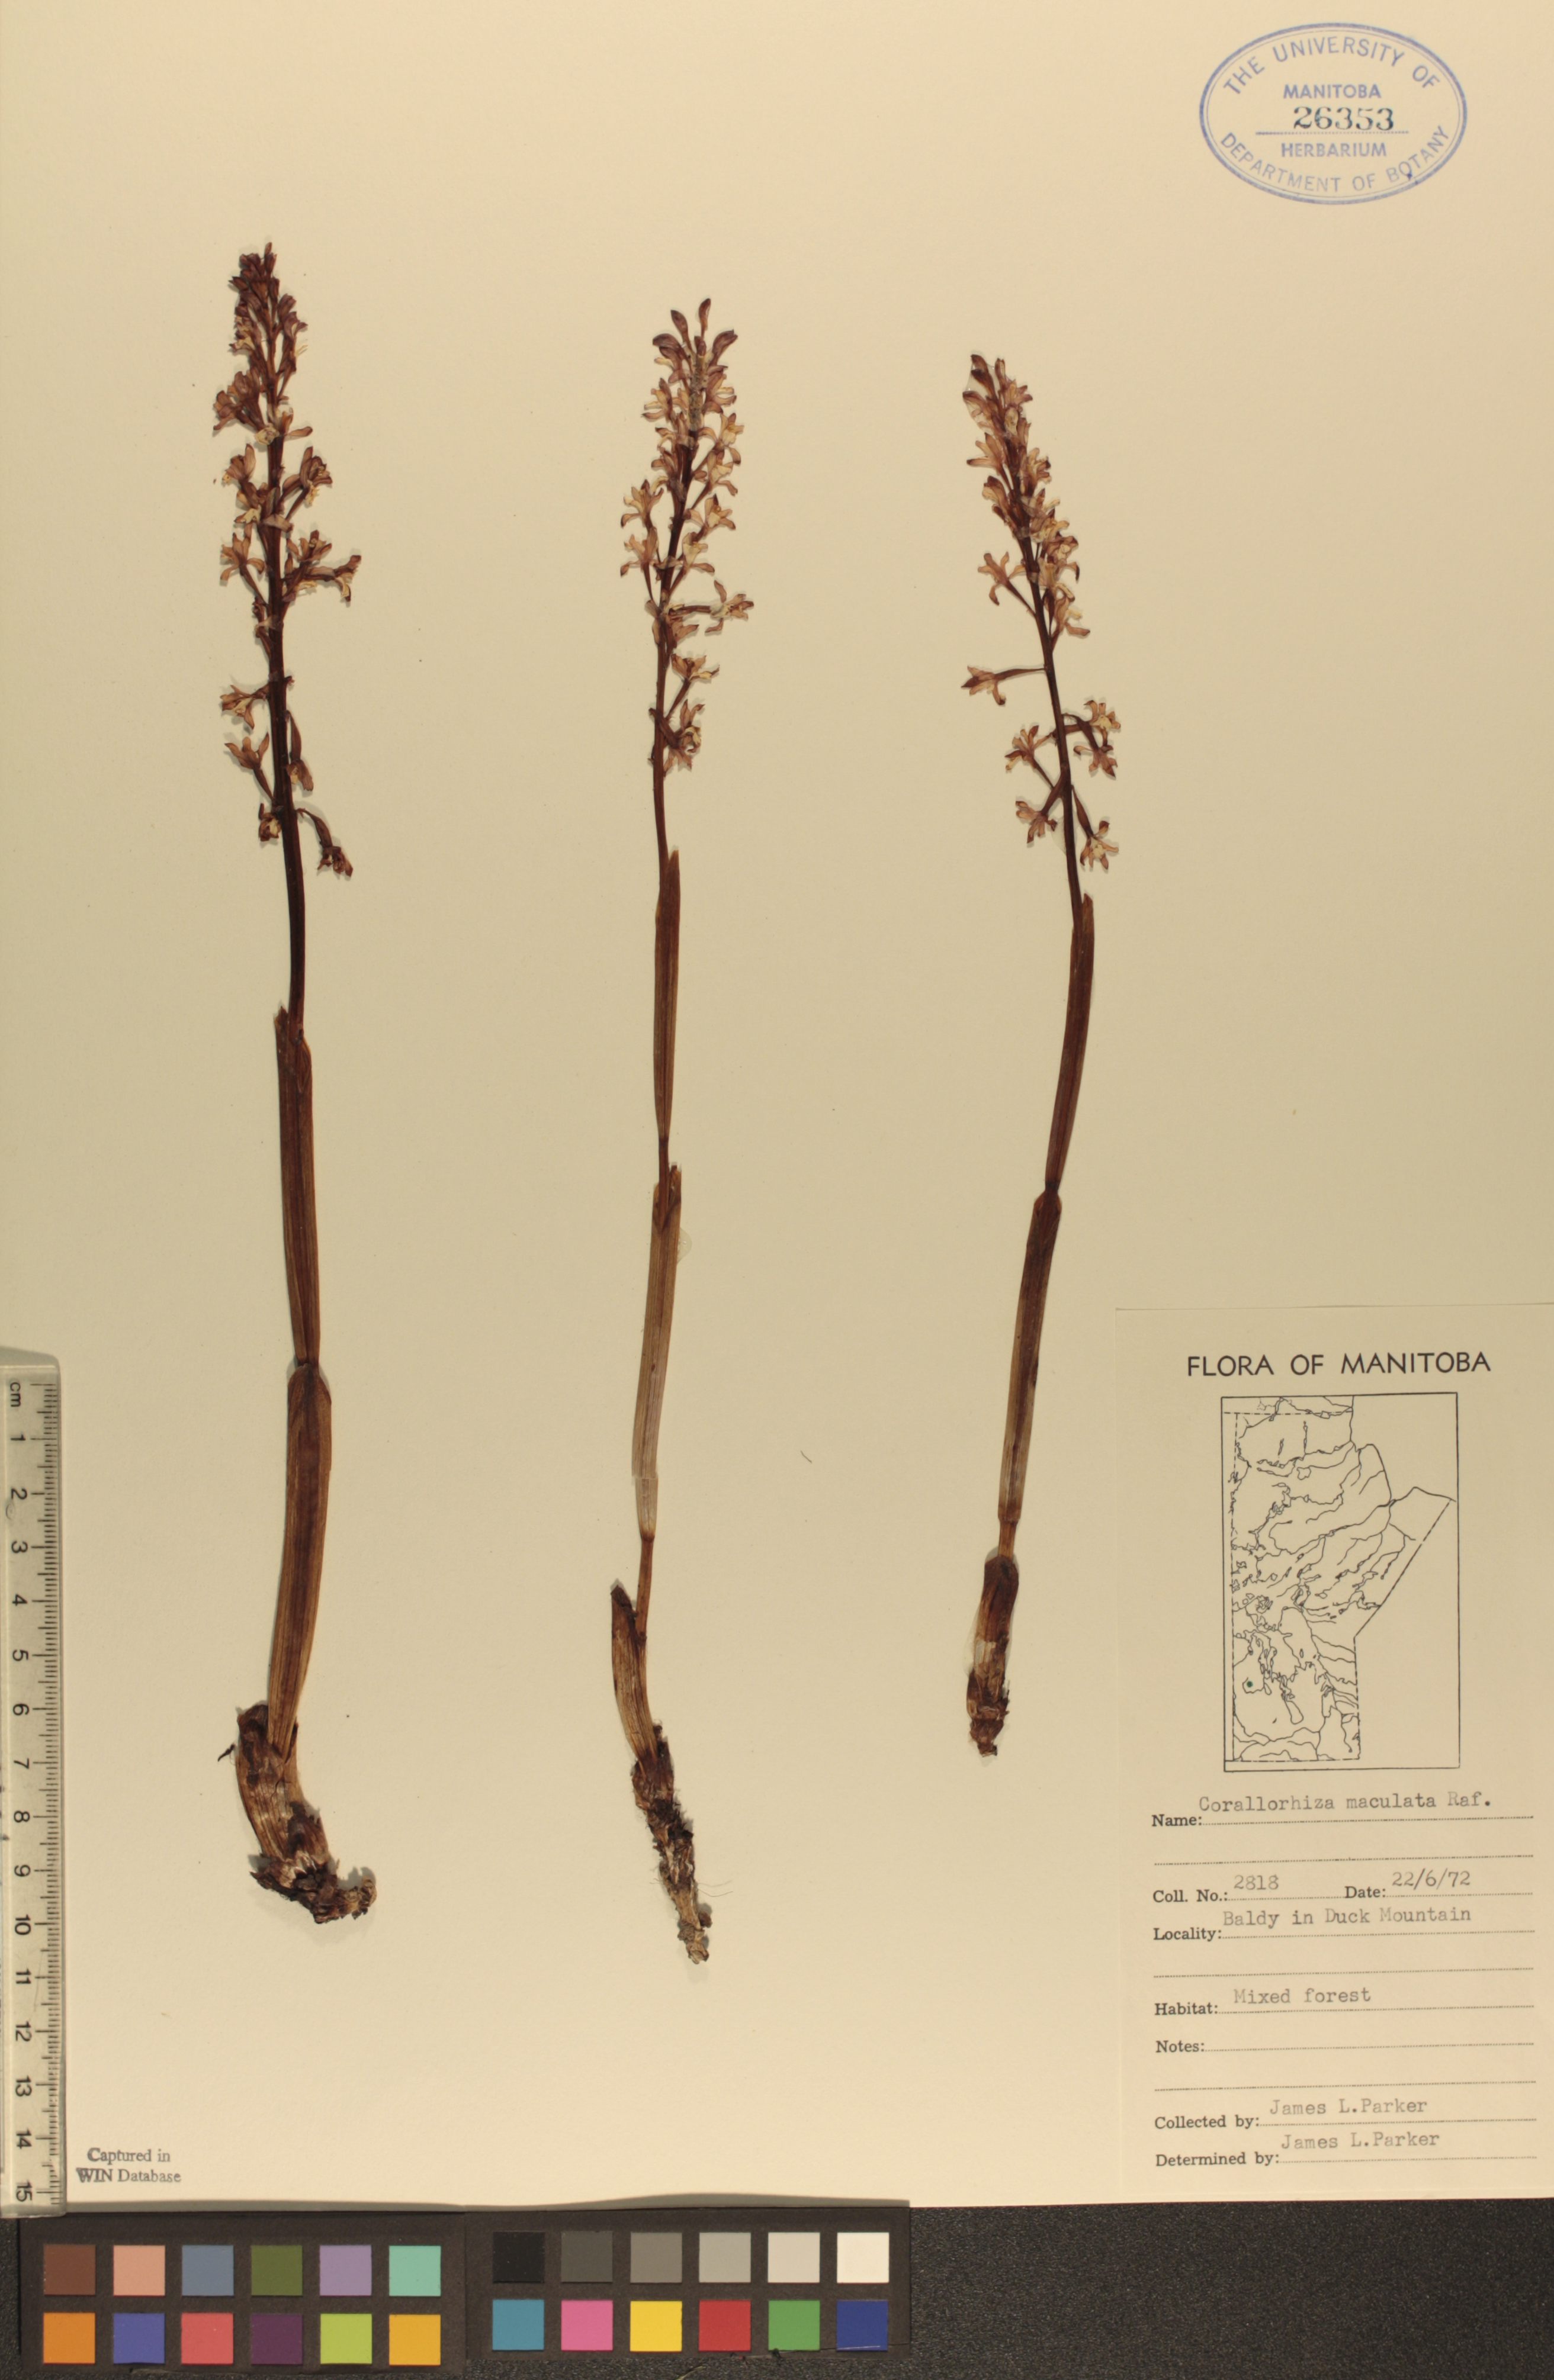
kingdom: Plantae
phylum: Tracheophyta
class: Liliopsida
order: Asparagales
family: Orchidaceae
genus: Corallorhiza
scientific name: Corallorhiza maculata
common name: Spotted coralroot
